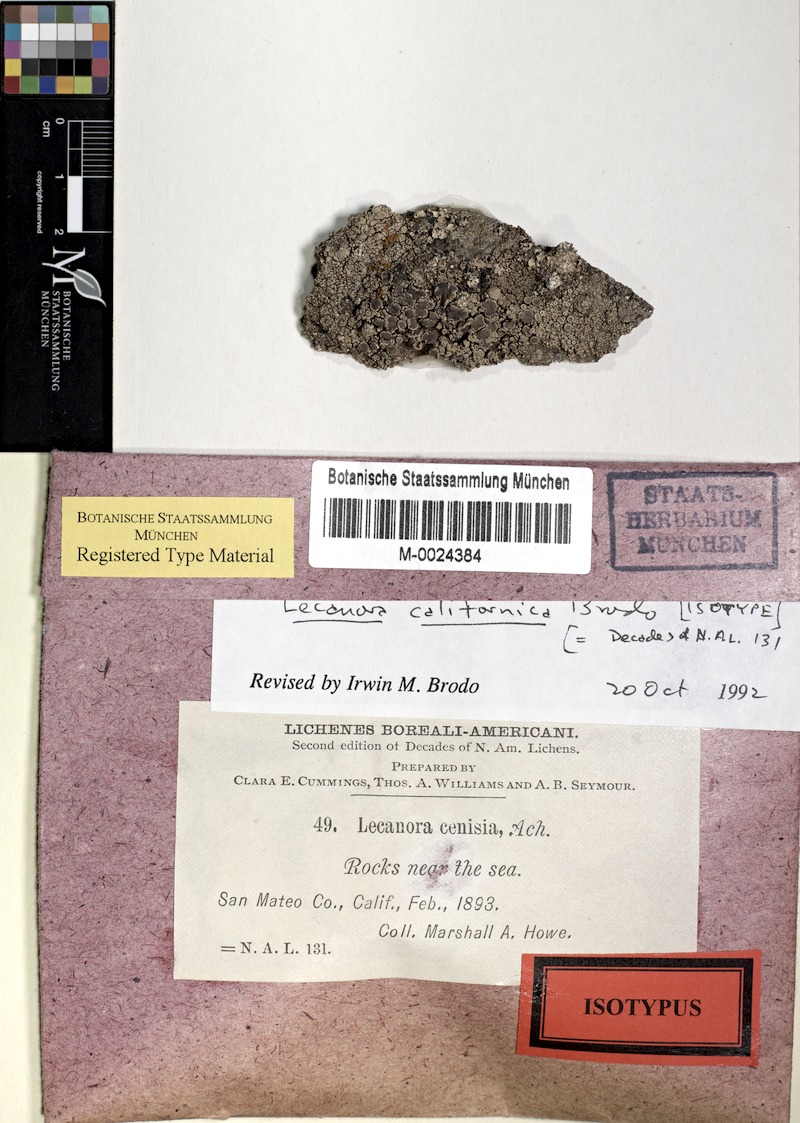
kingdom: Fungi
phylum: Ascomycota
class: Lecanoromycetes
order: Lecanorales
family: Lecanoraceae
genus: Lecanora
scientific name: Lecanora californica
